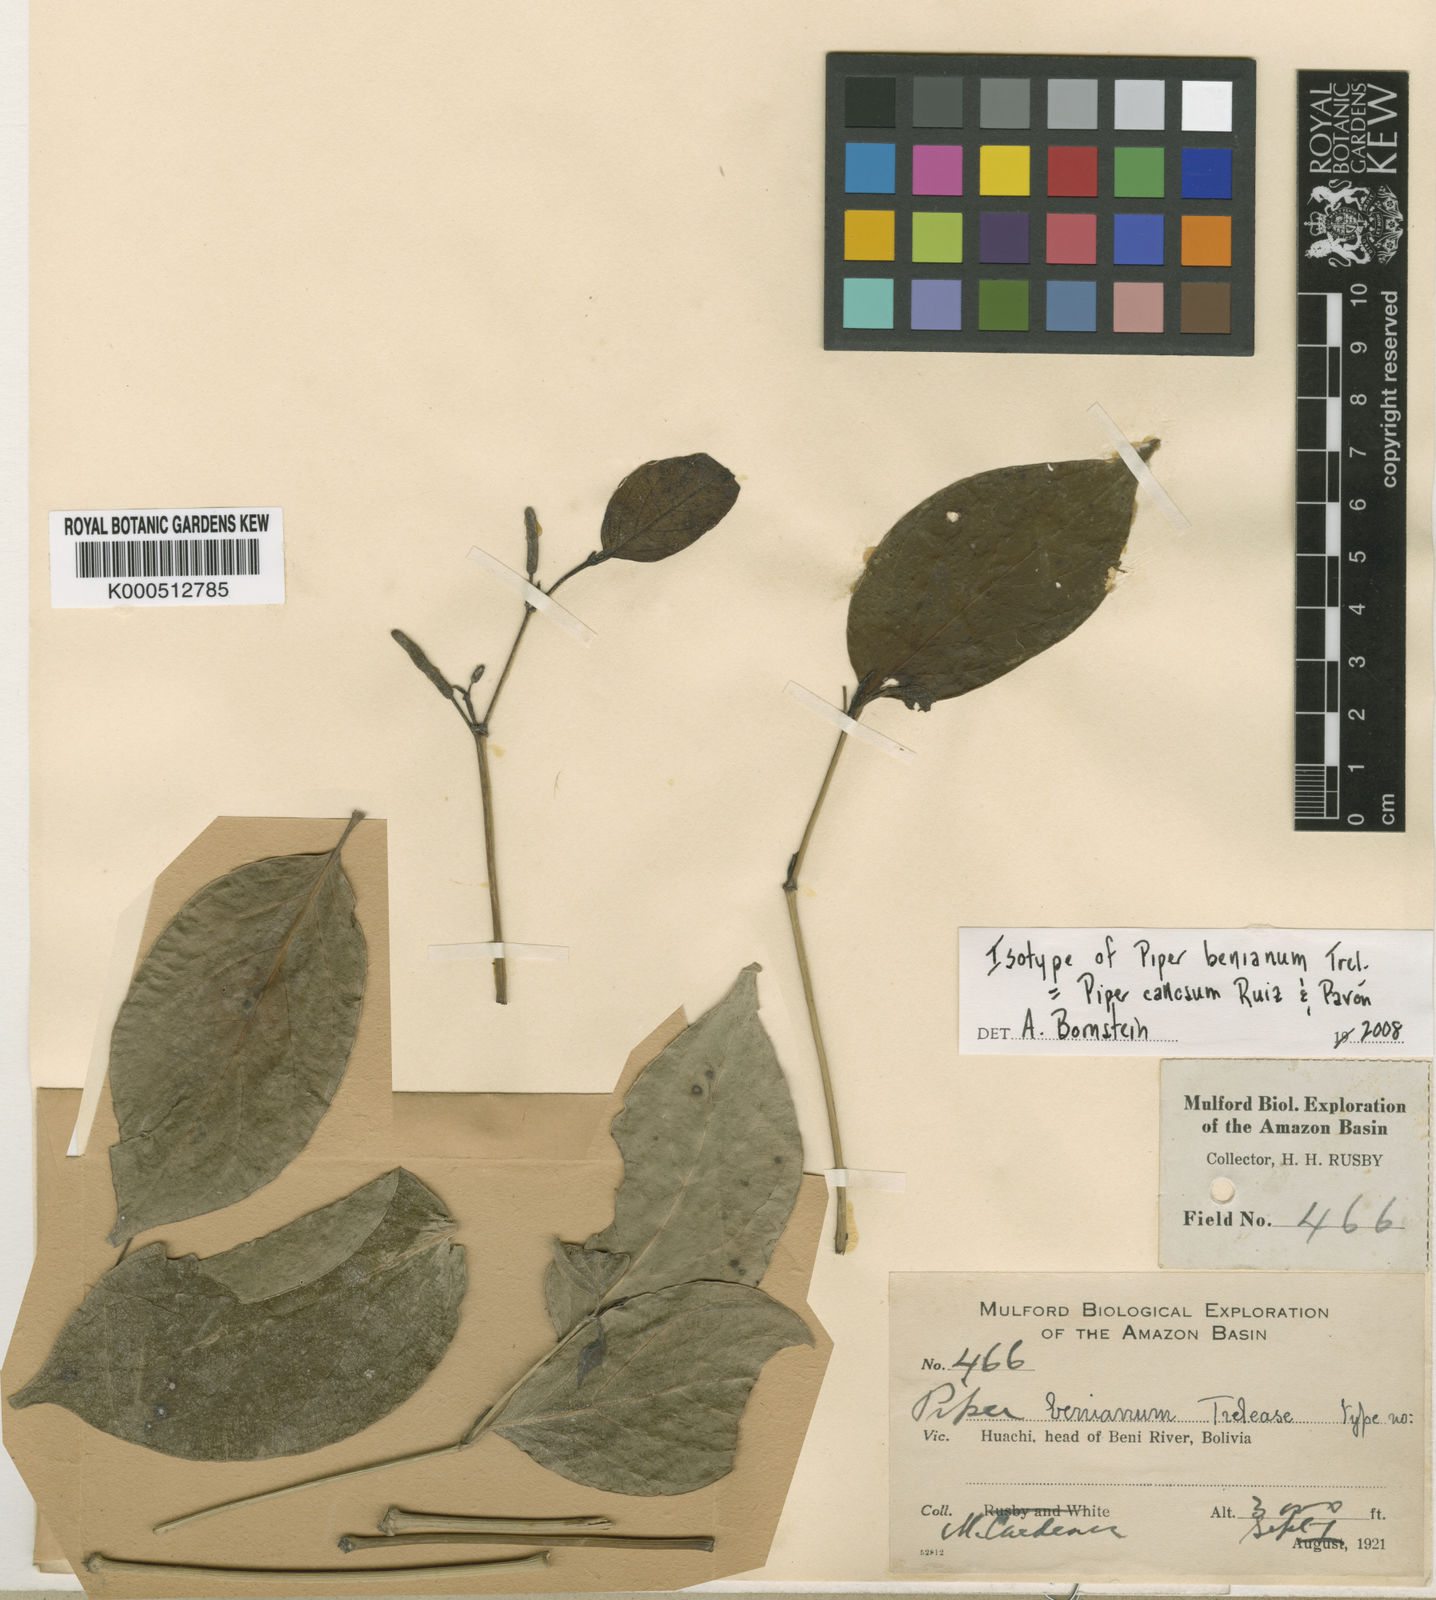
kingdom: Plantae
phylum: Tracheophyta
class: Magnoliopsida
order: Piperales
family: Piperaceae
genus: Piper
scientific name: Piper callosum
